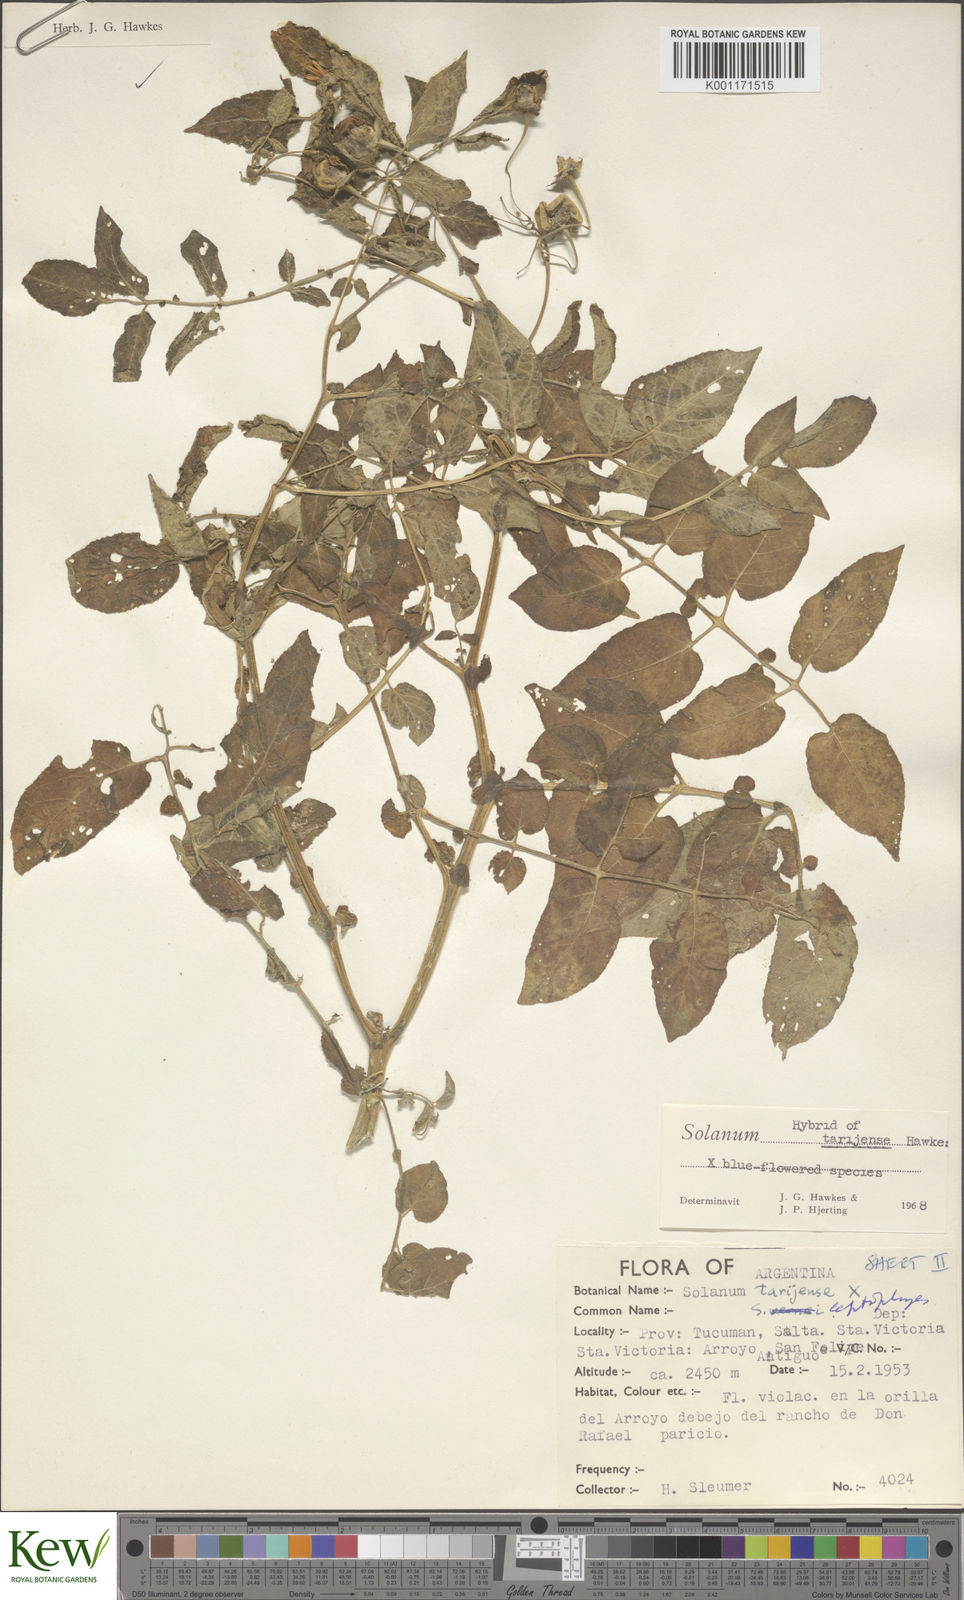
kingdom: Plantae
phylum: Tracheophyta
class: Magnoliopsida
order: Solanales
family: Solanaceae
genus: Solanum
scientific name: Solanum tarijense
